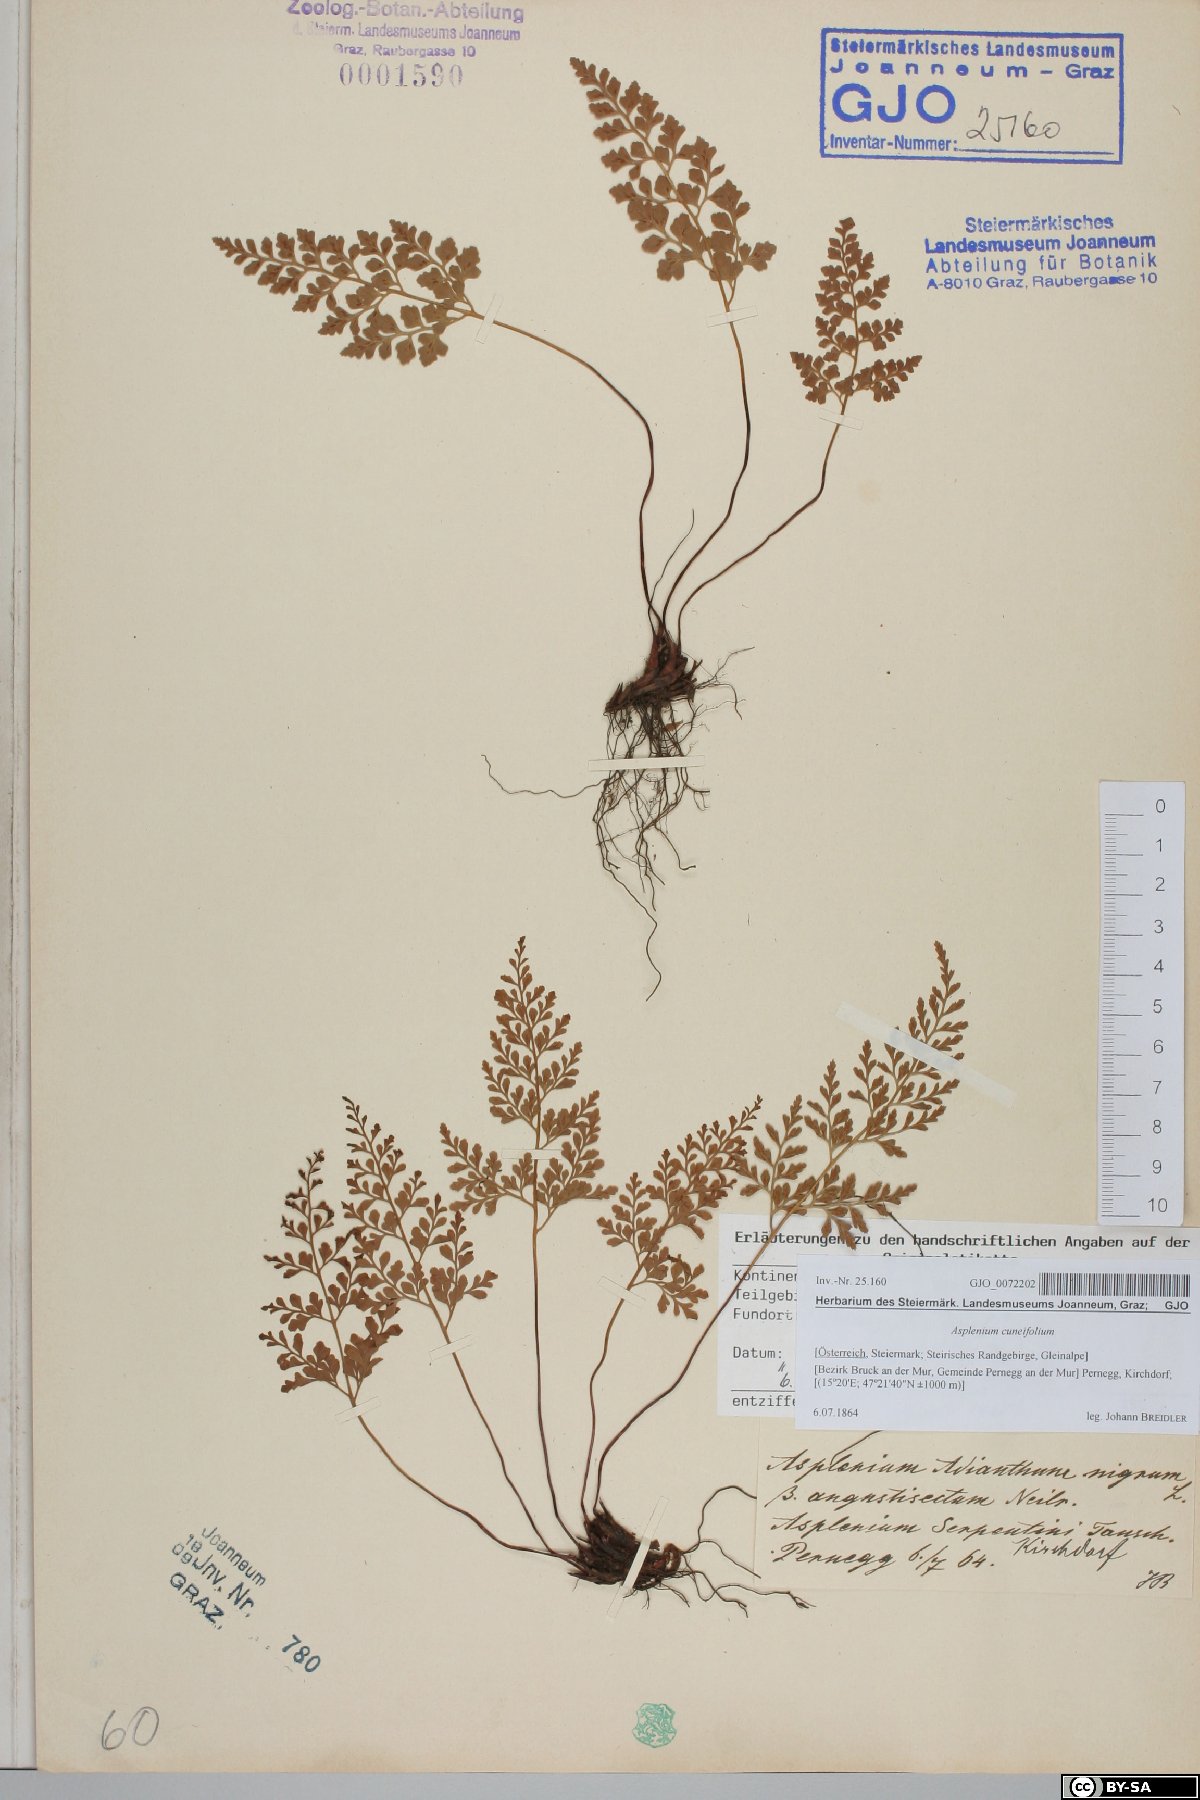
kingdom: Plantae
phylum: Tracheophyta
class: Polypodiopsida
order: Polypodiales
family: Aspleniaceae
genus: Asplenium
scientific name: Asplenium cuneifolium
